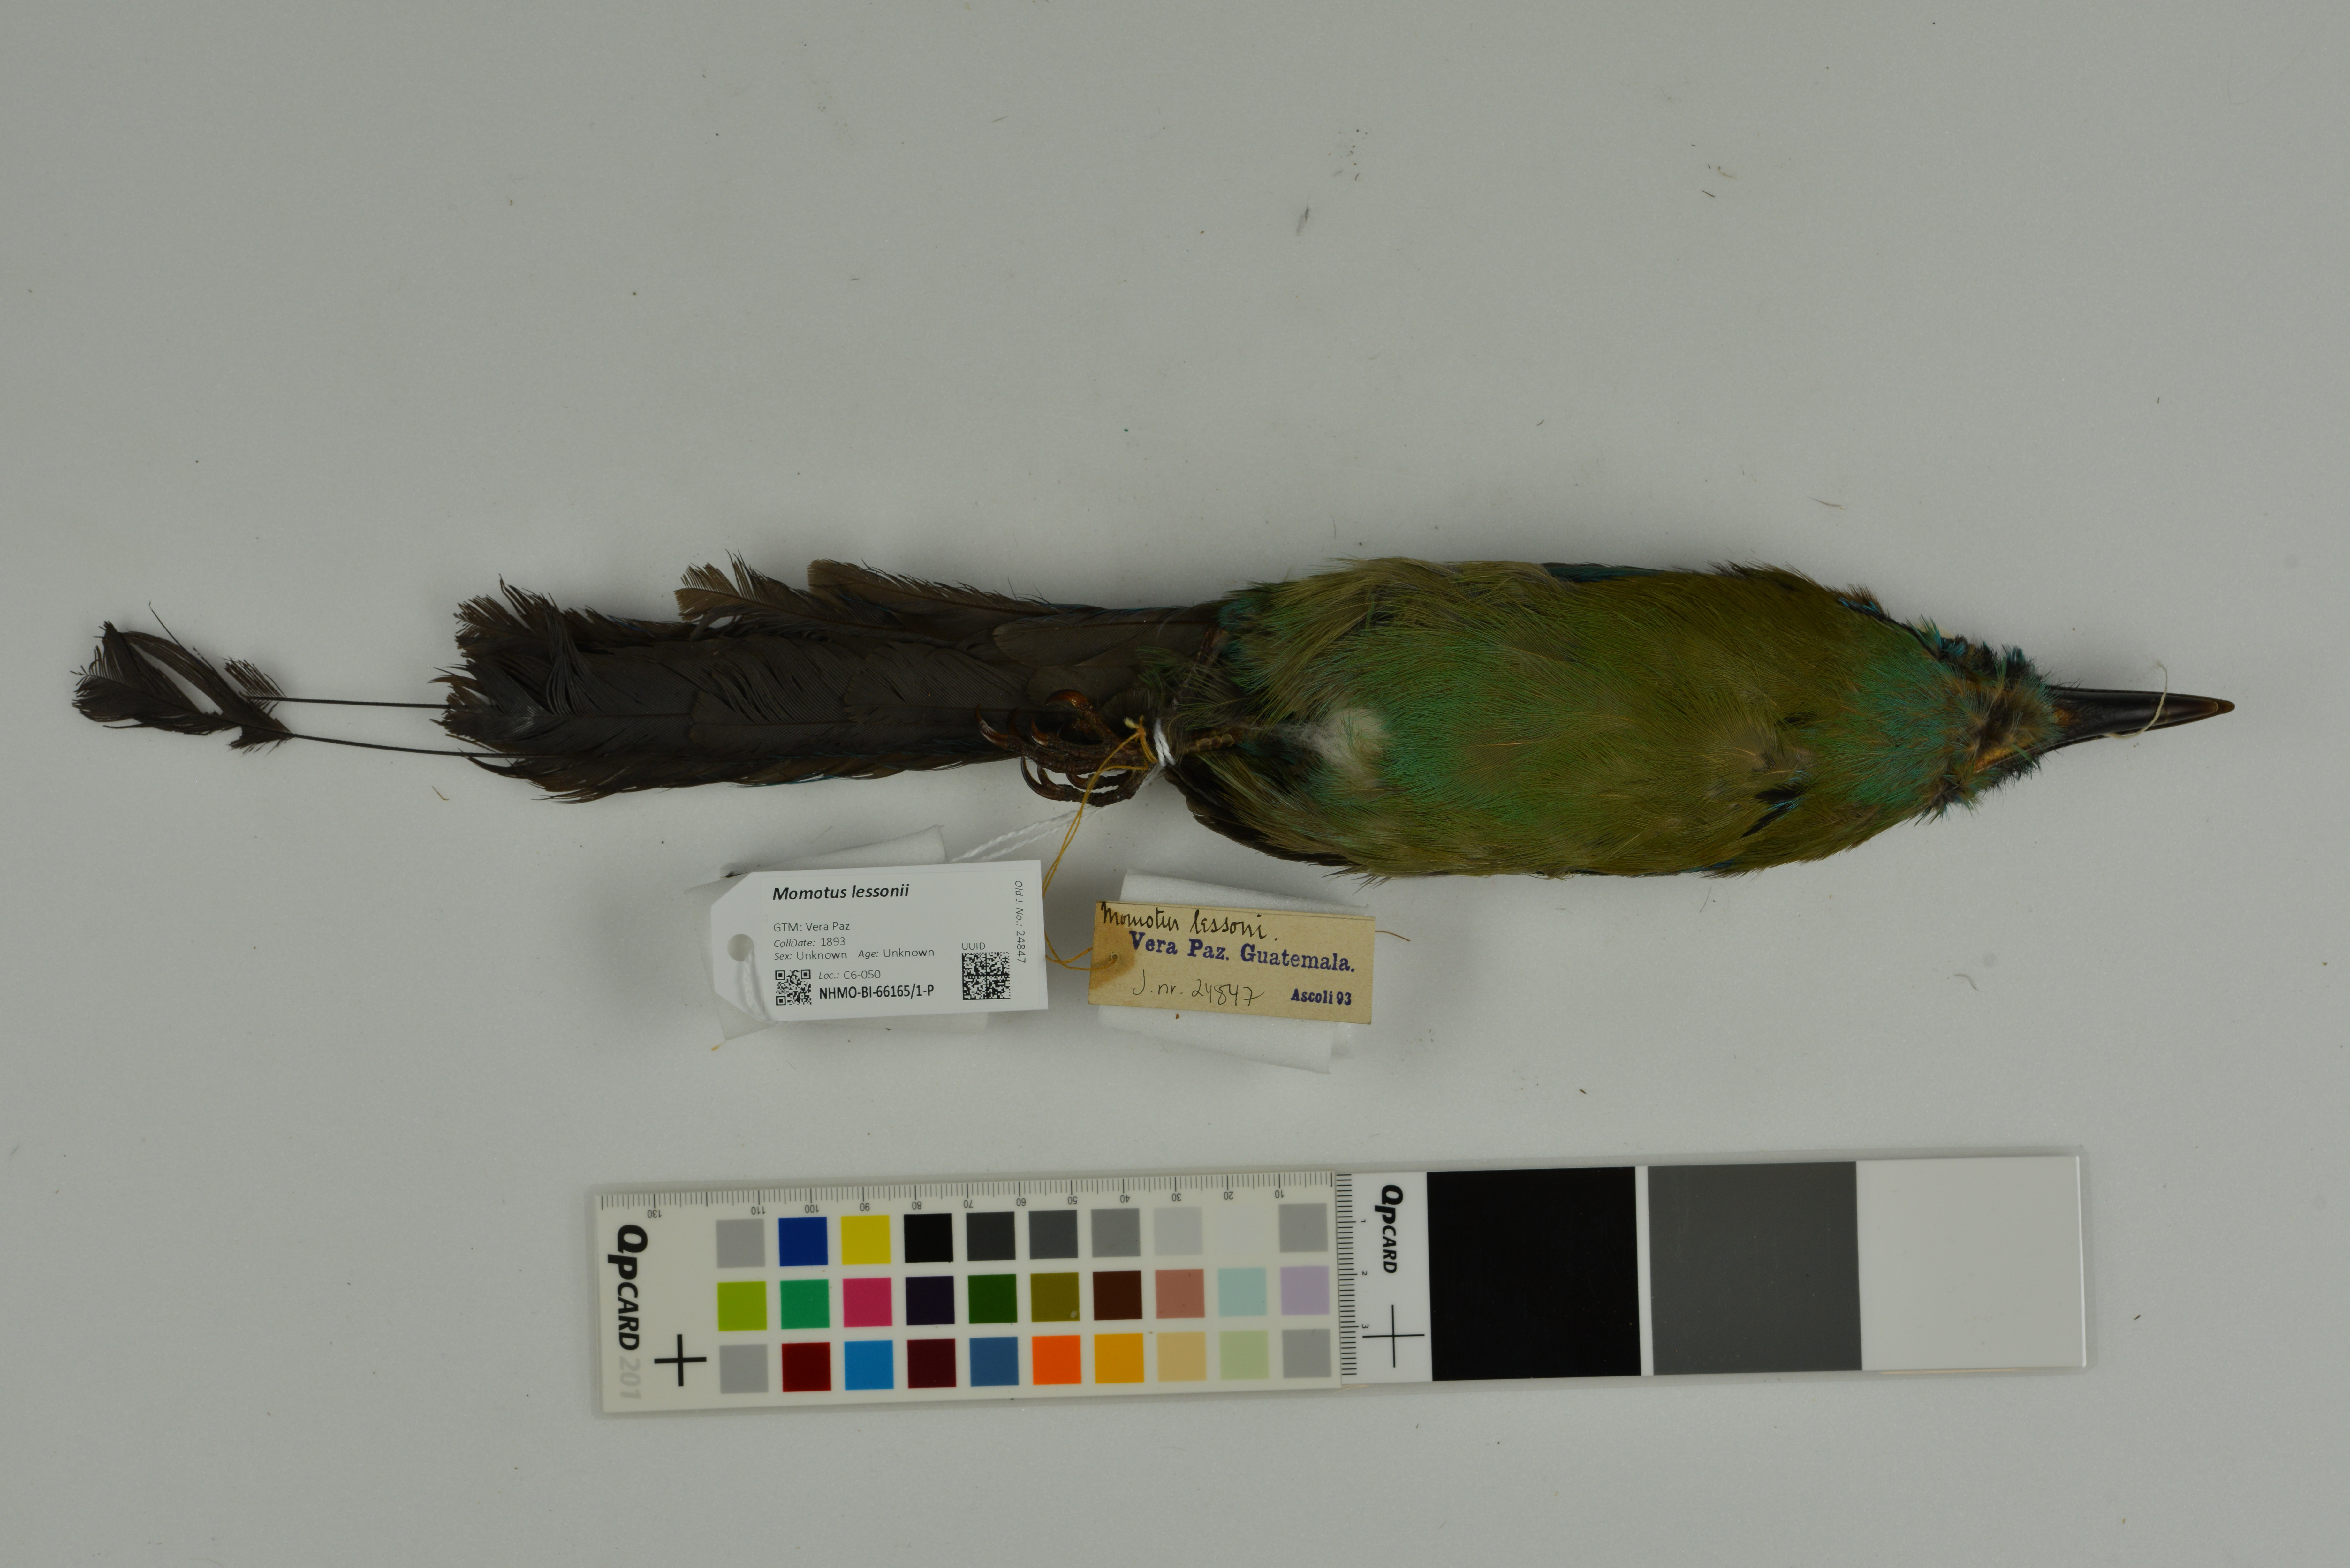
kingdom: Animalia
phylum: Chordata
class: Aves
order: Coraciiformes
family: Momotidae
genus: Momotus
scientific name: Momotus lessonii
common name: Lesson's motmot
